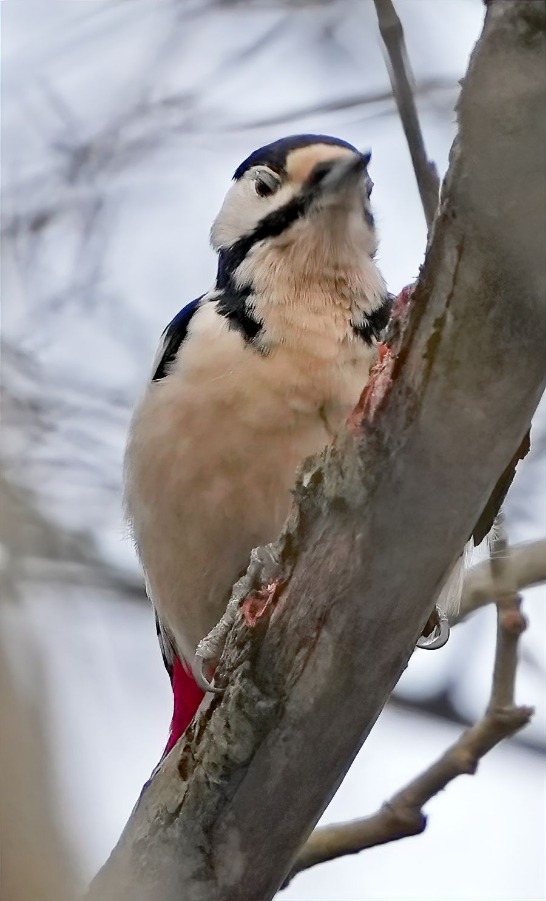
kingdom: Animalia
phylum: Chordata
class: Aves
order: Piciformes
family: Picidae
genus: Dendrocopos
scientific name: Dendrocopos major
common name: Stor flagspætte
